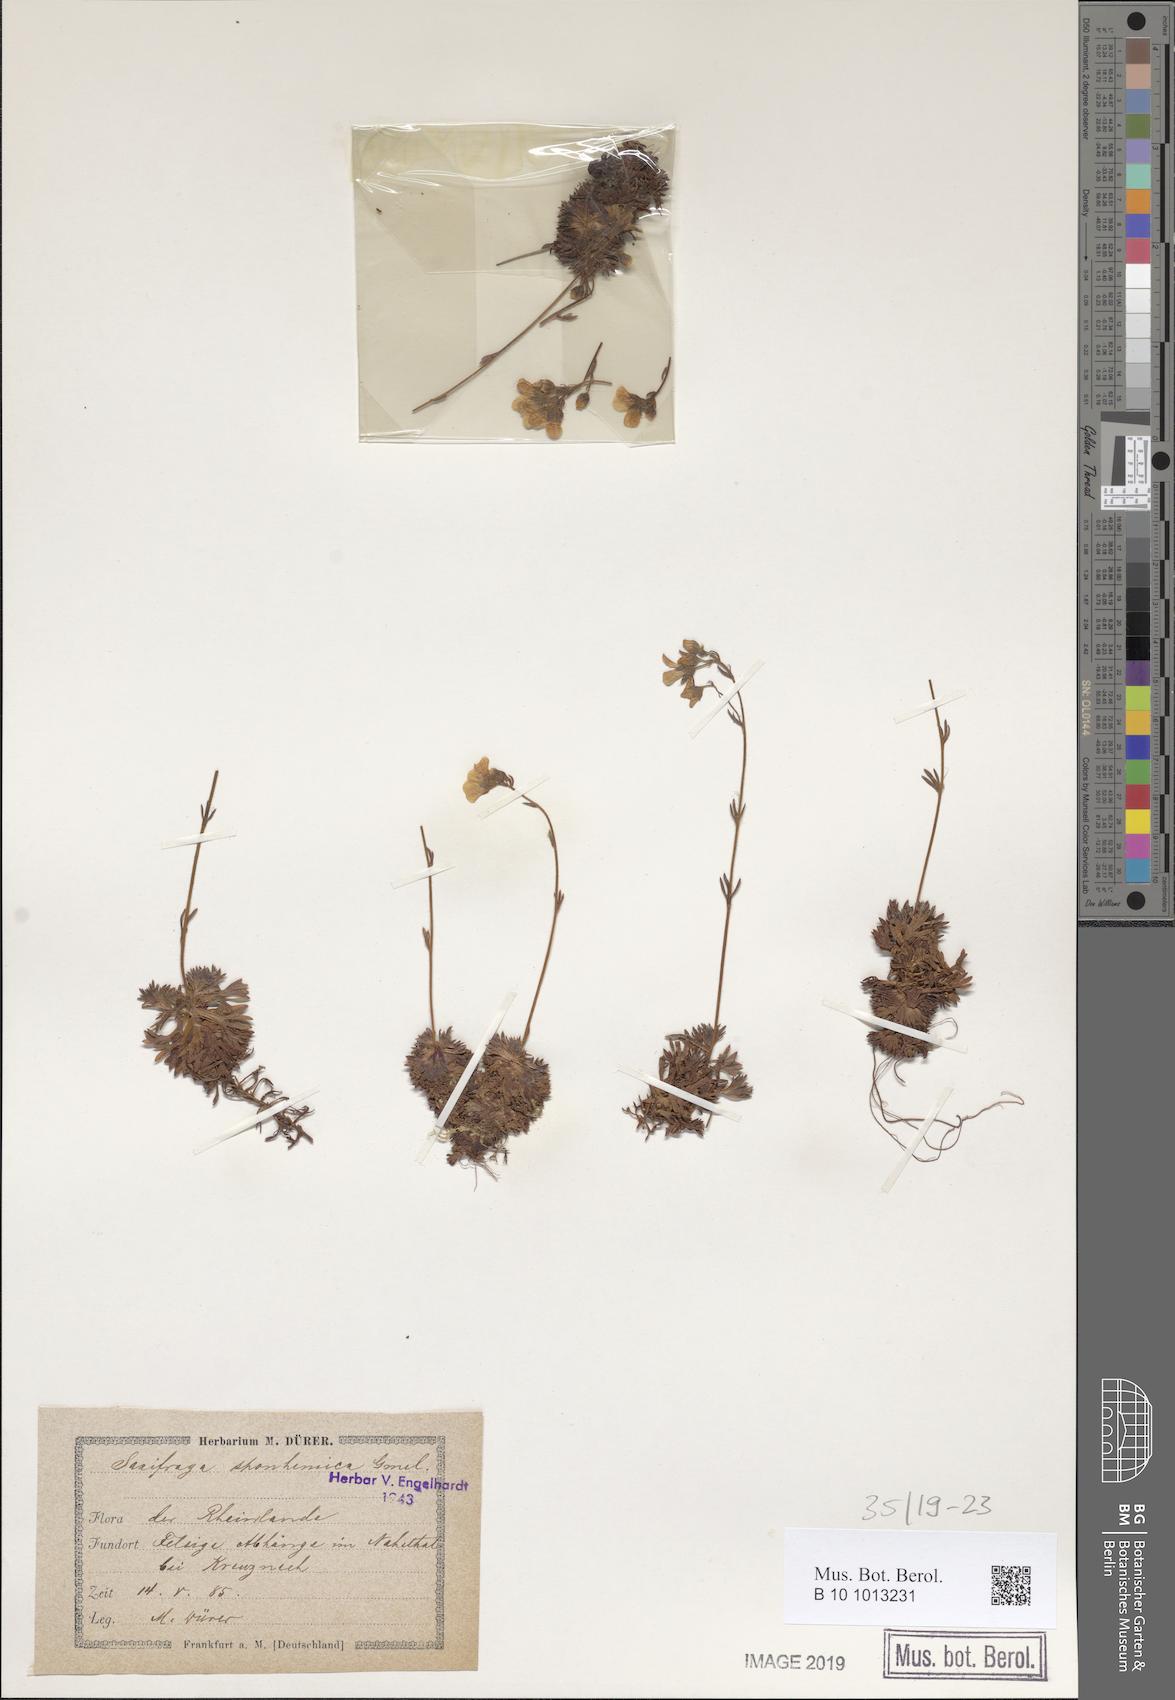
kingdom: Plantae
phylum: Tracheophyta
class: Magnoliopsida
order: Saxifragales
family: Saxifragaceae
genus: Saxifraga
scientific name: Saxifraga rosacea
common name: Irish saxifrage
